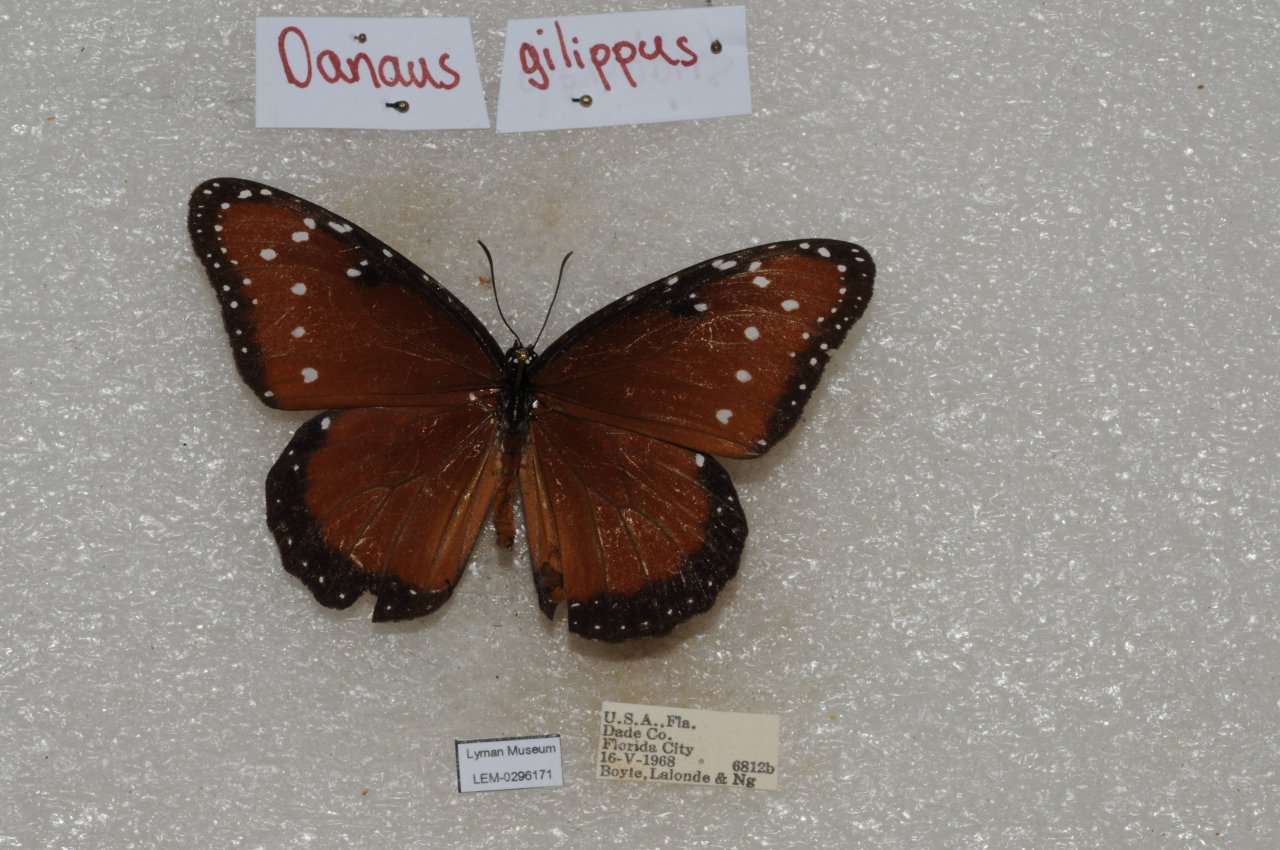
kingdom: Animalia
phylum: Arthropoda
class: Insecta
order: Lepidoptera
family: Nymphalidae
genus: Danaus
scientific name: Danaus gilippus
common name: Queen
